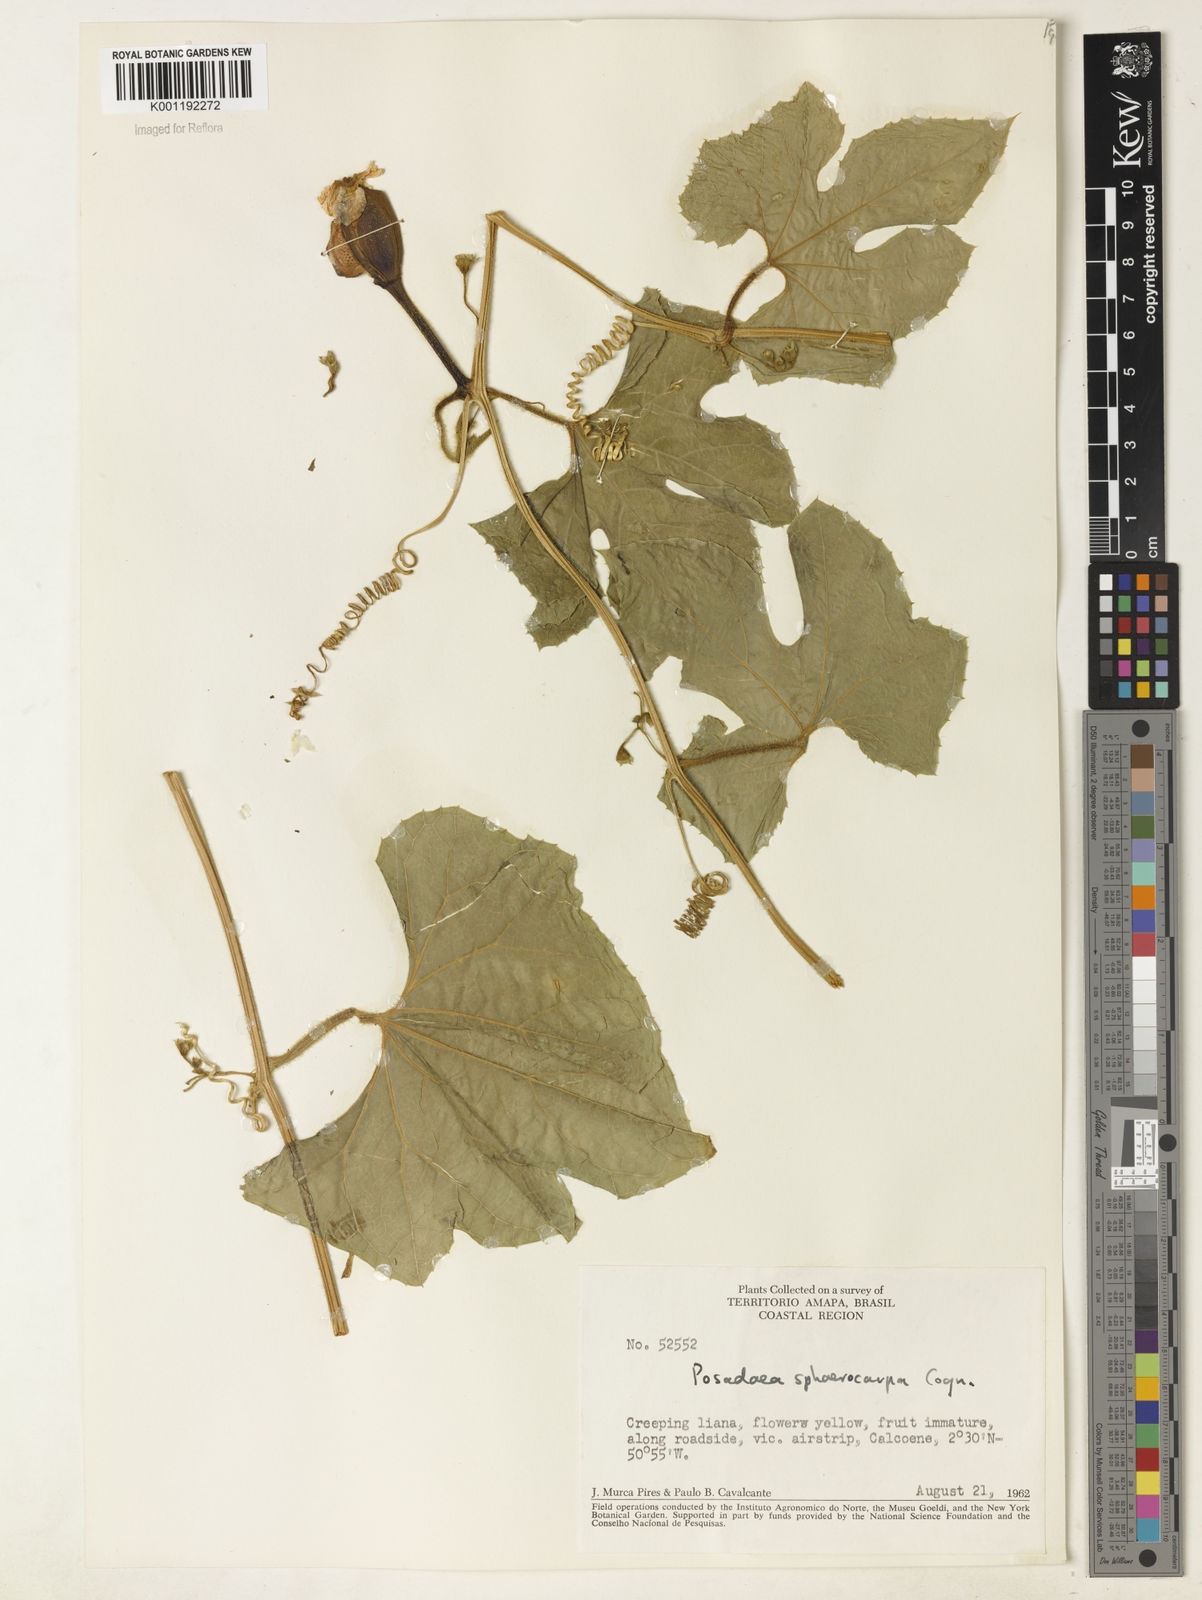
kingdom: Plantae
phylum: Tracheophyta
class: Magnoliopsida
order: Cucurbitales
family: Cucurbitaceae
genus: Melothria
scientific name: Melothria sphaerocarpa
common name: Egusi-itoo
